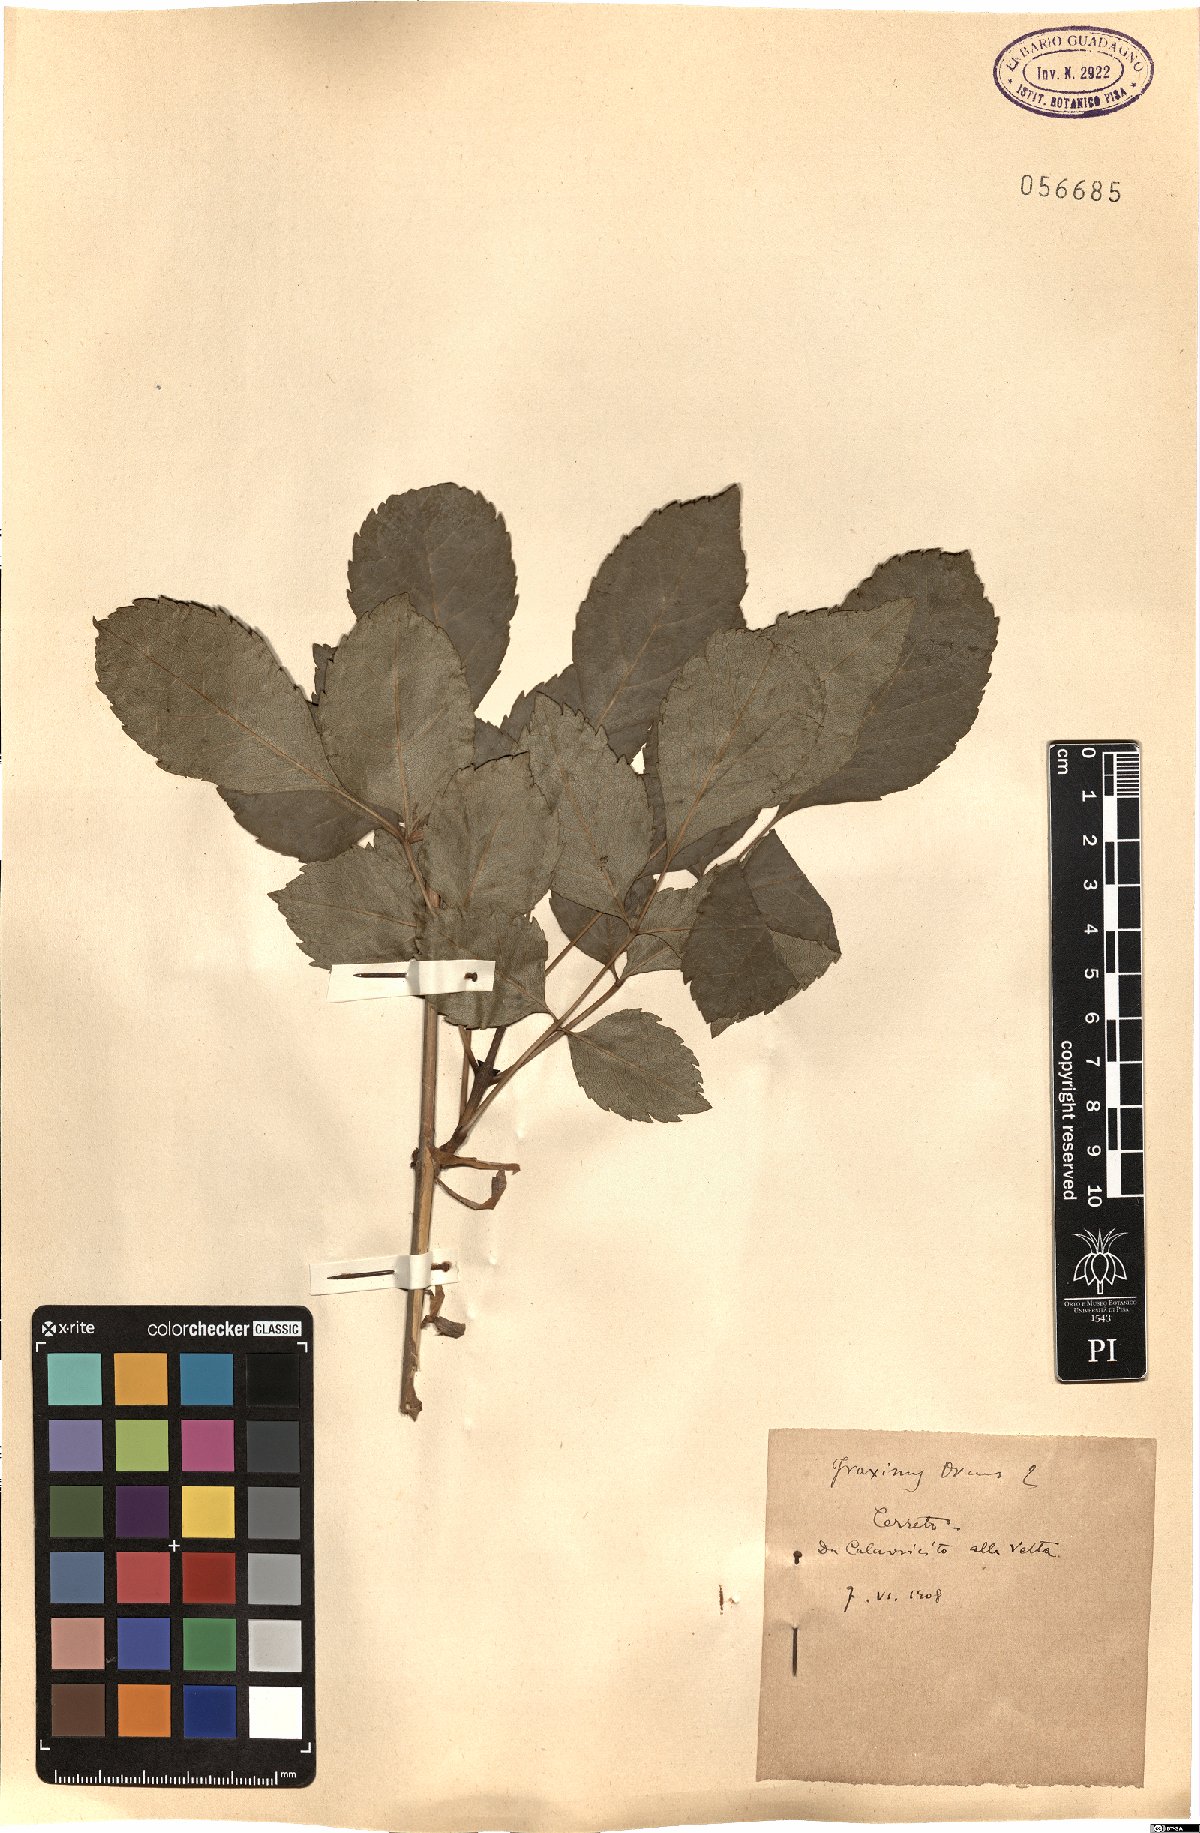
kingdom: Plantae
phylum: Tracheophyta
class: Magnoliopsida
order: Lamiales
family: Oleaceae
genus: Fraxinus
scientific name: Fraxinus ornus
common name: Manna ash
